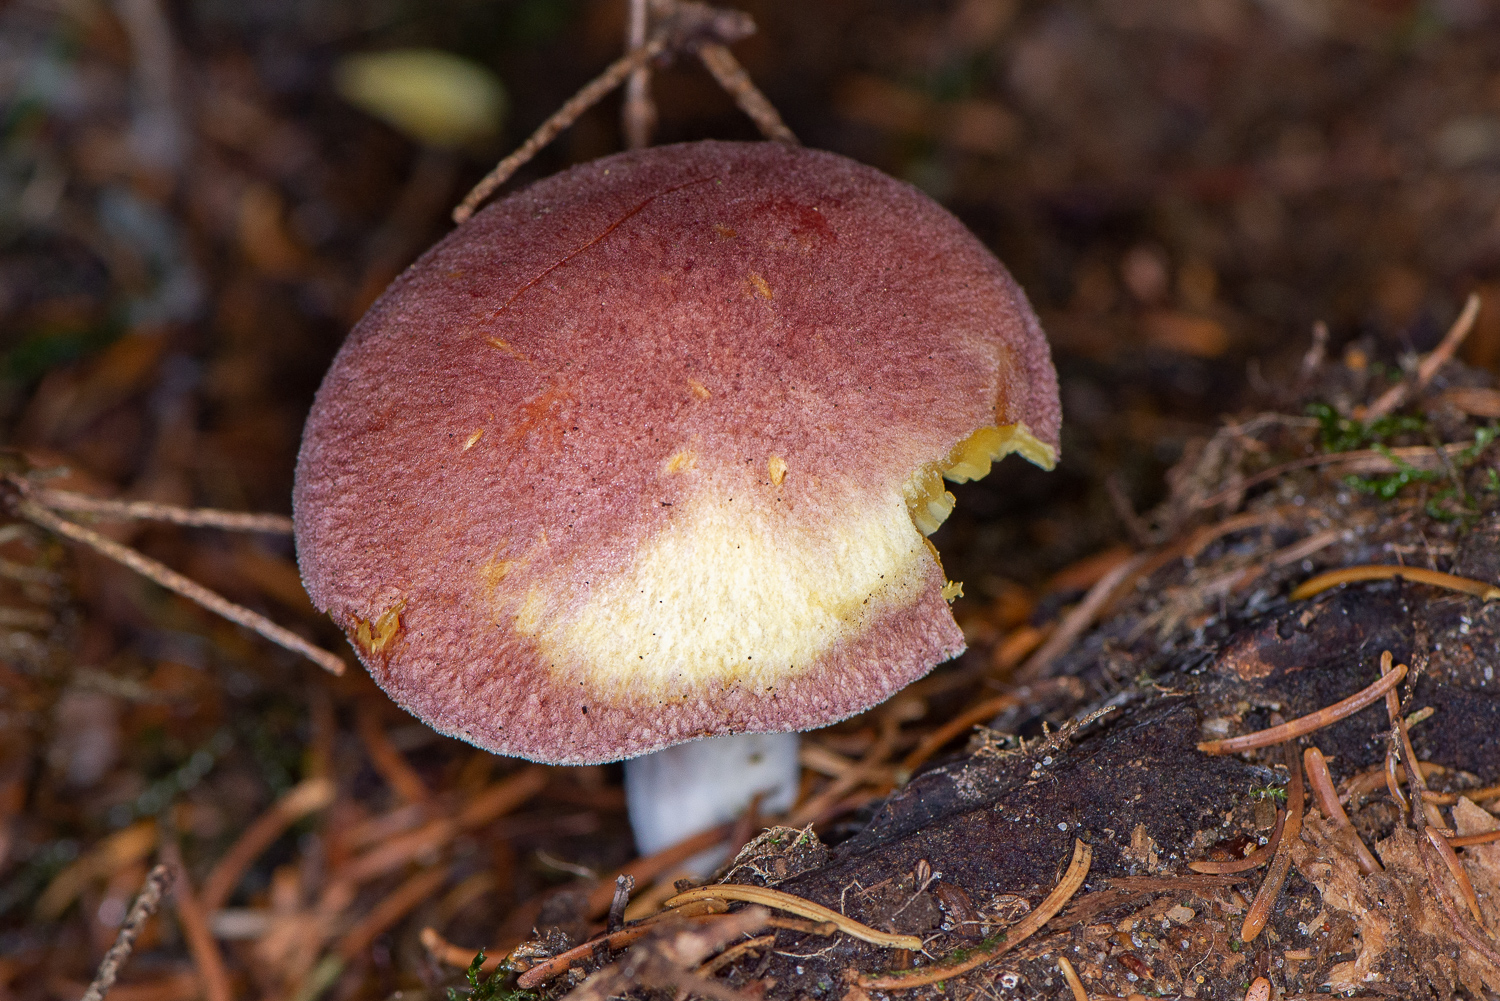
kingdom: Fungi
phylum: Basidiomycota
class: Agaricomycetes
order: Agaricales
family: Tricholomataceae
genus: Tricholomopsis
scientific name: Tricholomopsis rutilans
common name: purpur-væbnerhat
